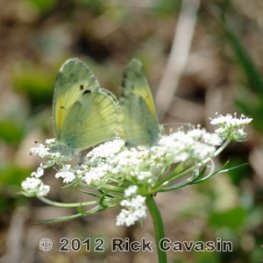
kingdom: Animalia
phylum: Arthropoda
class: Insecta
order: Lepidoptera
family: Pieridae
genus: Nathalis
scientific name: Nathalis iole
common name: Dainty Sulphur
